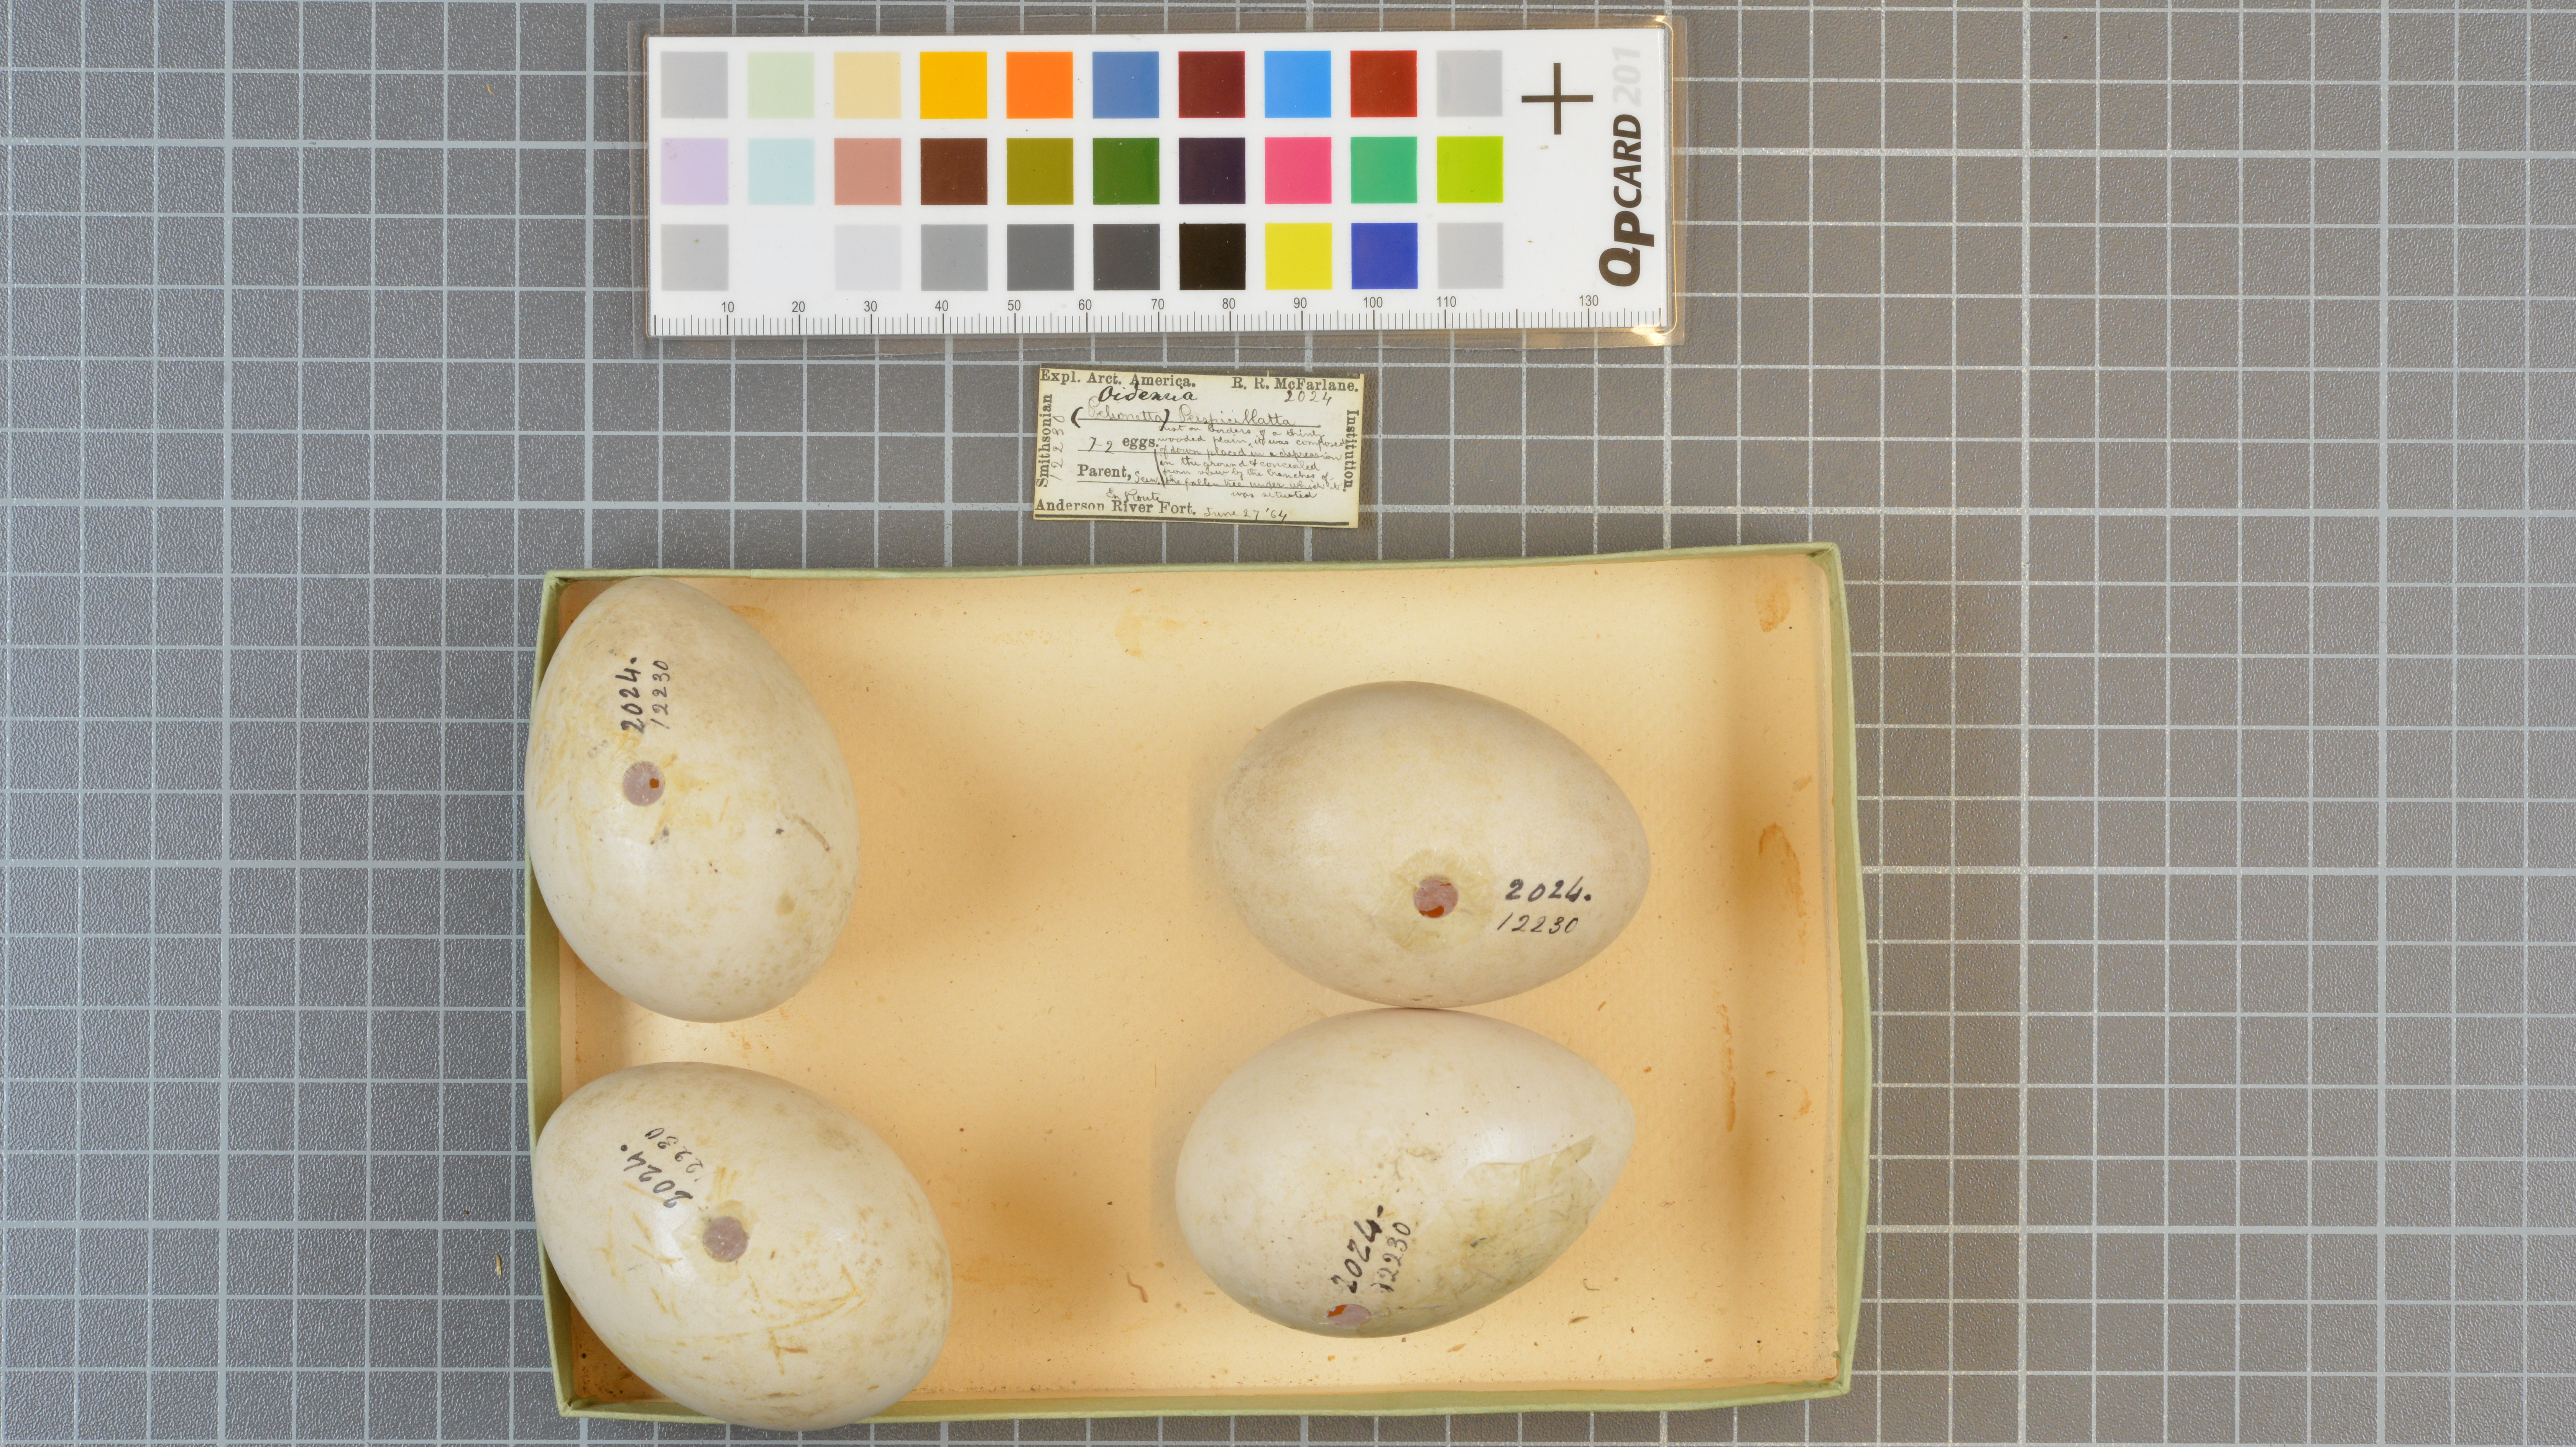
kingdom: Animalia
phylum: Chordata
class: Aves
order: Anseriformes
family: Anatidae
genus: Melanitta
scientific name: Melanitta perspicillata
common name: Surf scoter
